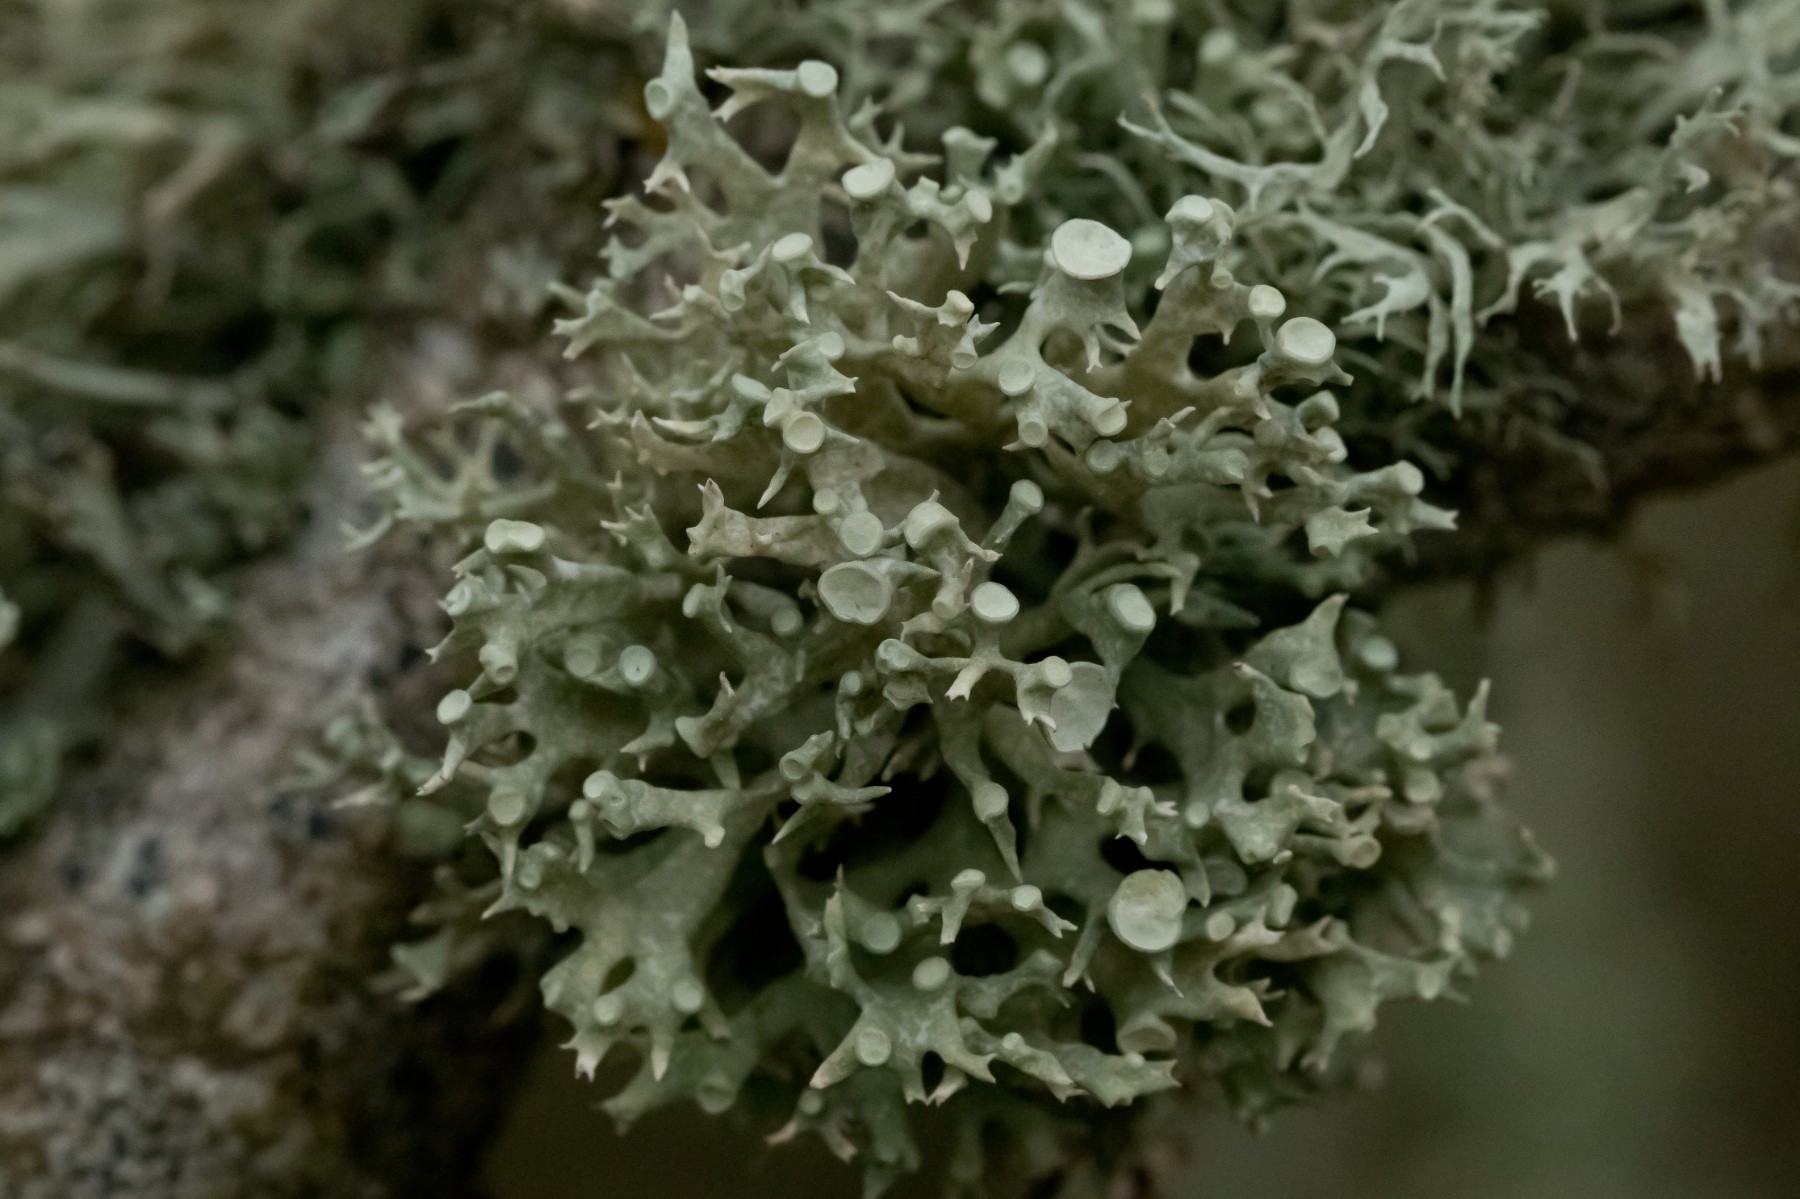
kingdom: Fungi
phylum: Ascomycota
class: Lecanoromycetes
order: Lecanorales
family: Ramalinaceae
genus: Ramalina
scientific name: Ramalina fastigiata
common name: tue-grenlav
